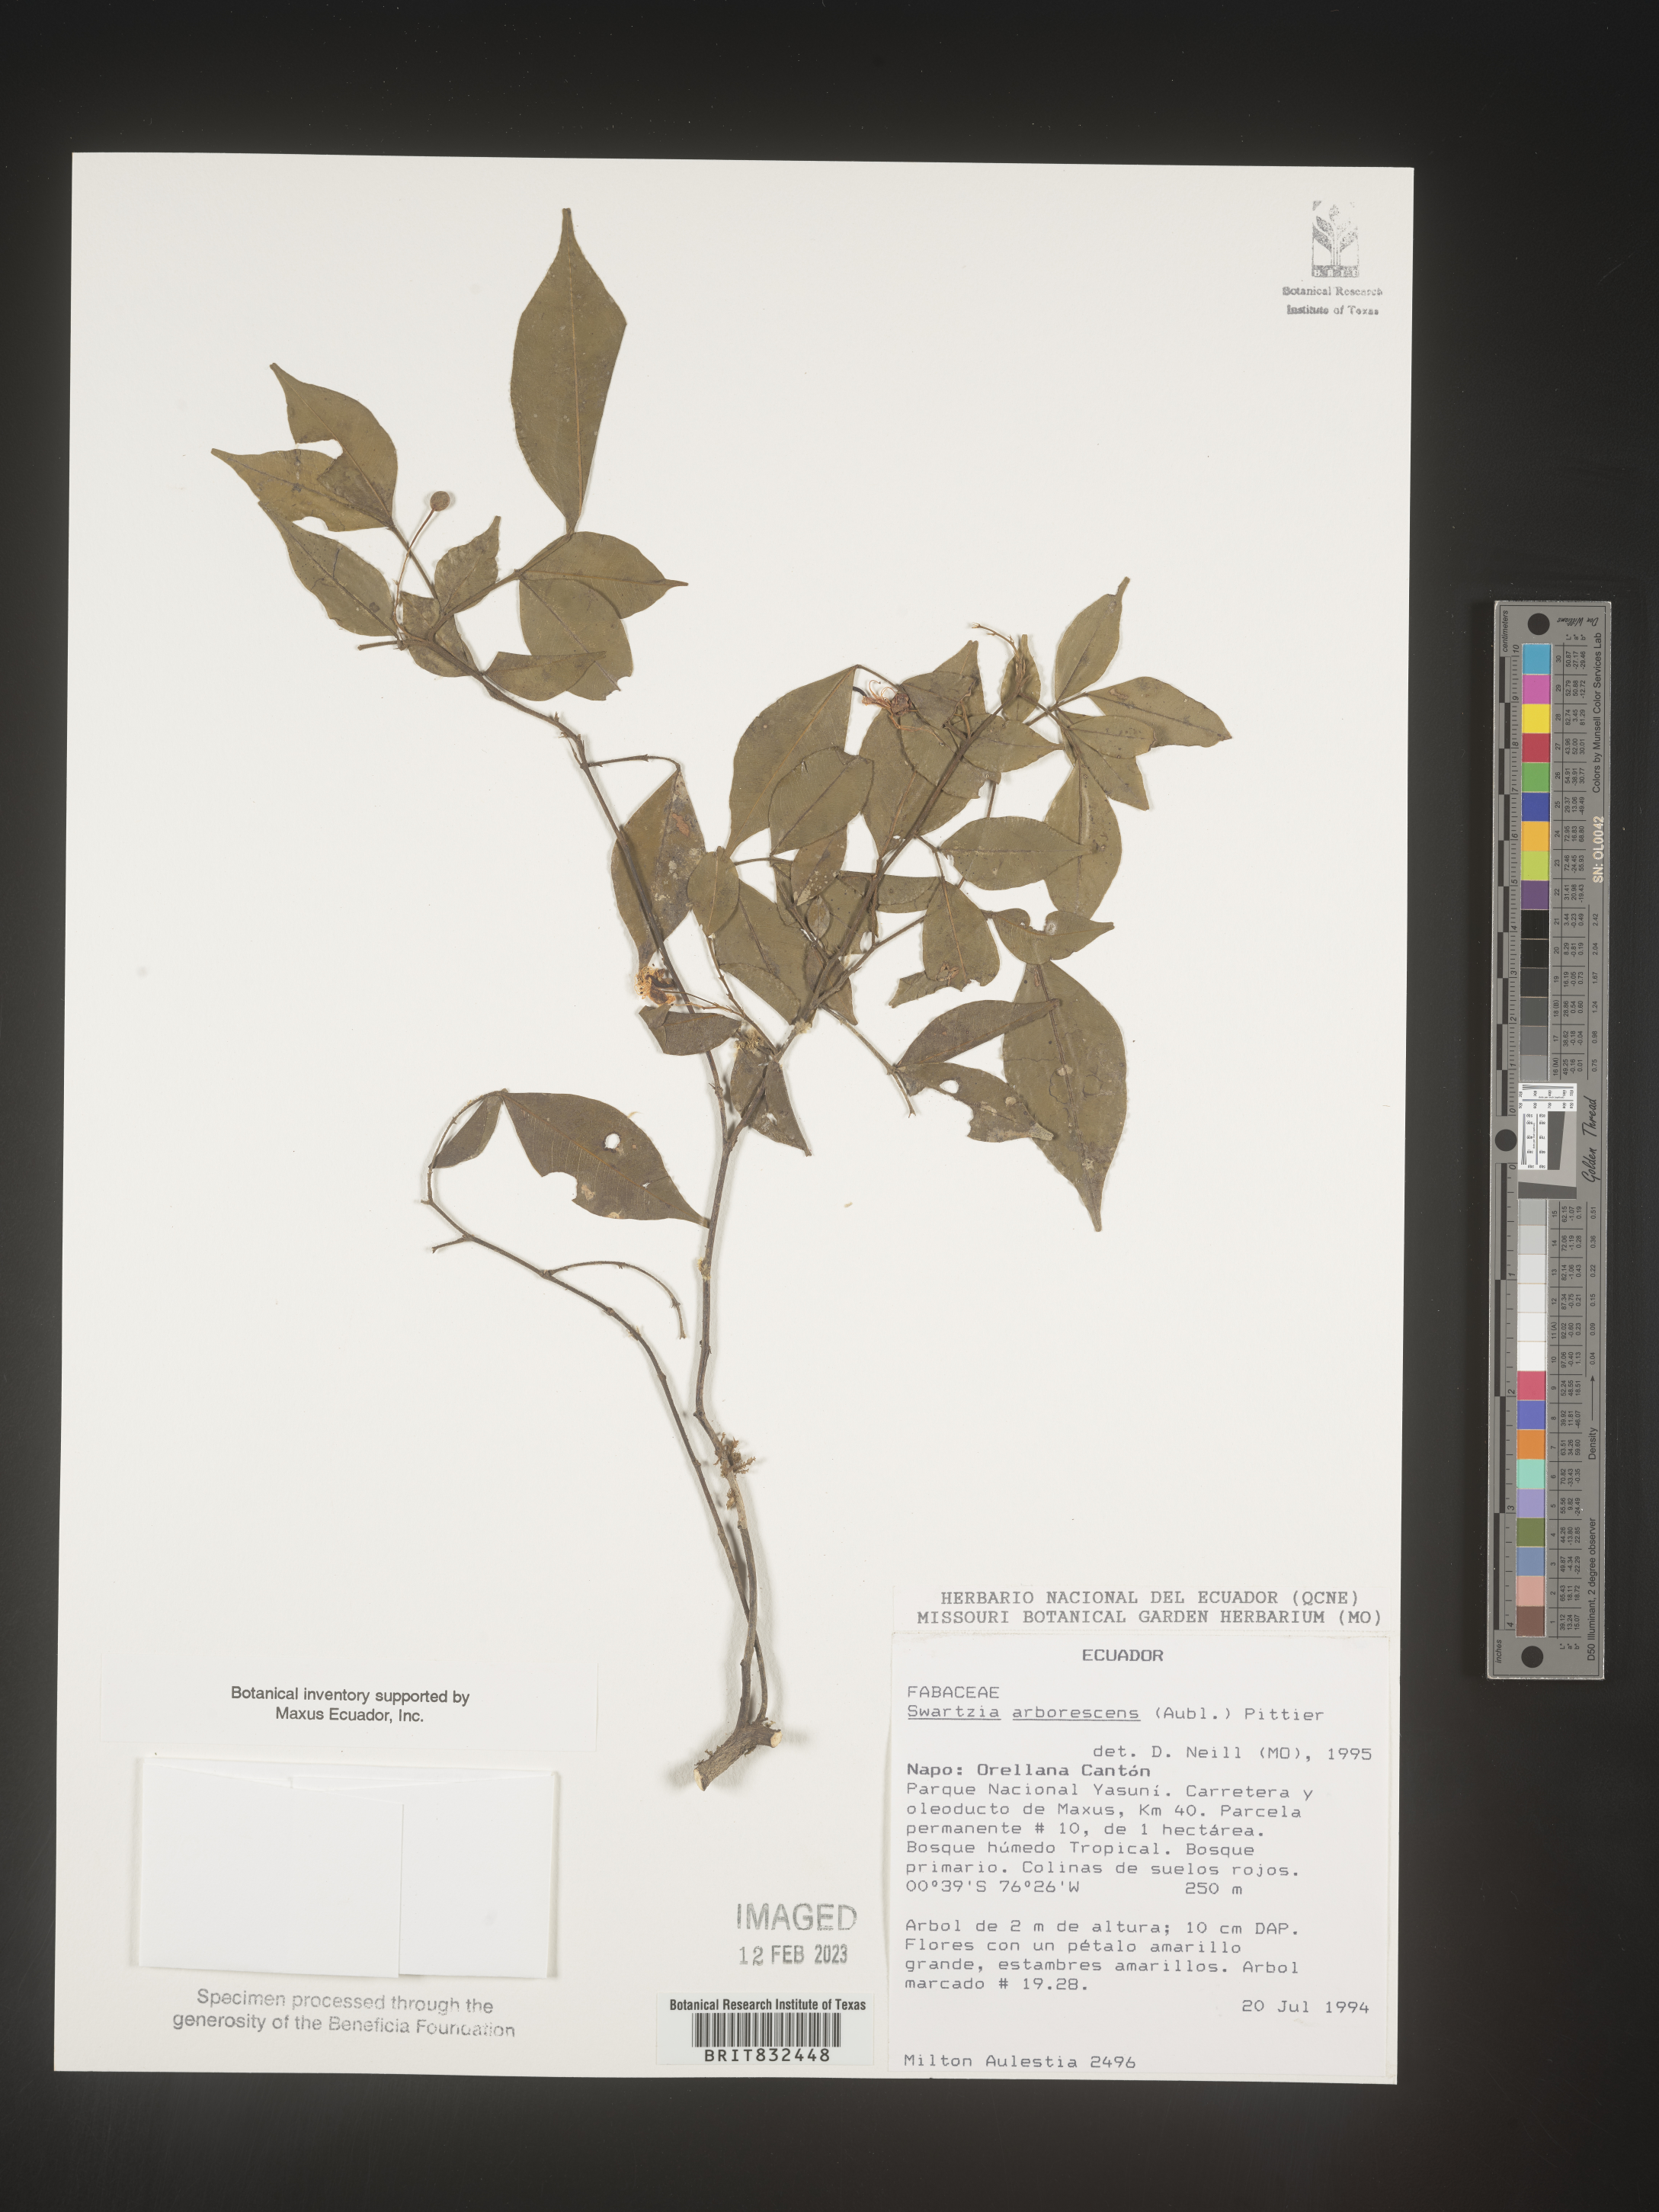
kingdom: Plantae
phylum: Tracheophyta
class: Magnoliopsida
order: Fabales
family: Fabaceae
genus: Swartzia
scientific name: Swartzia
